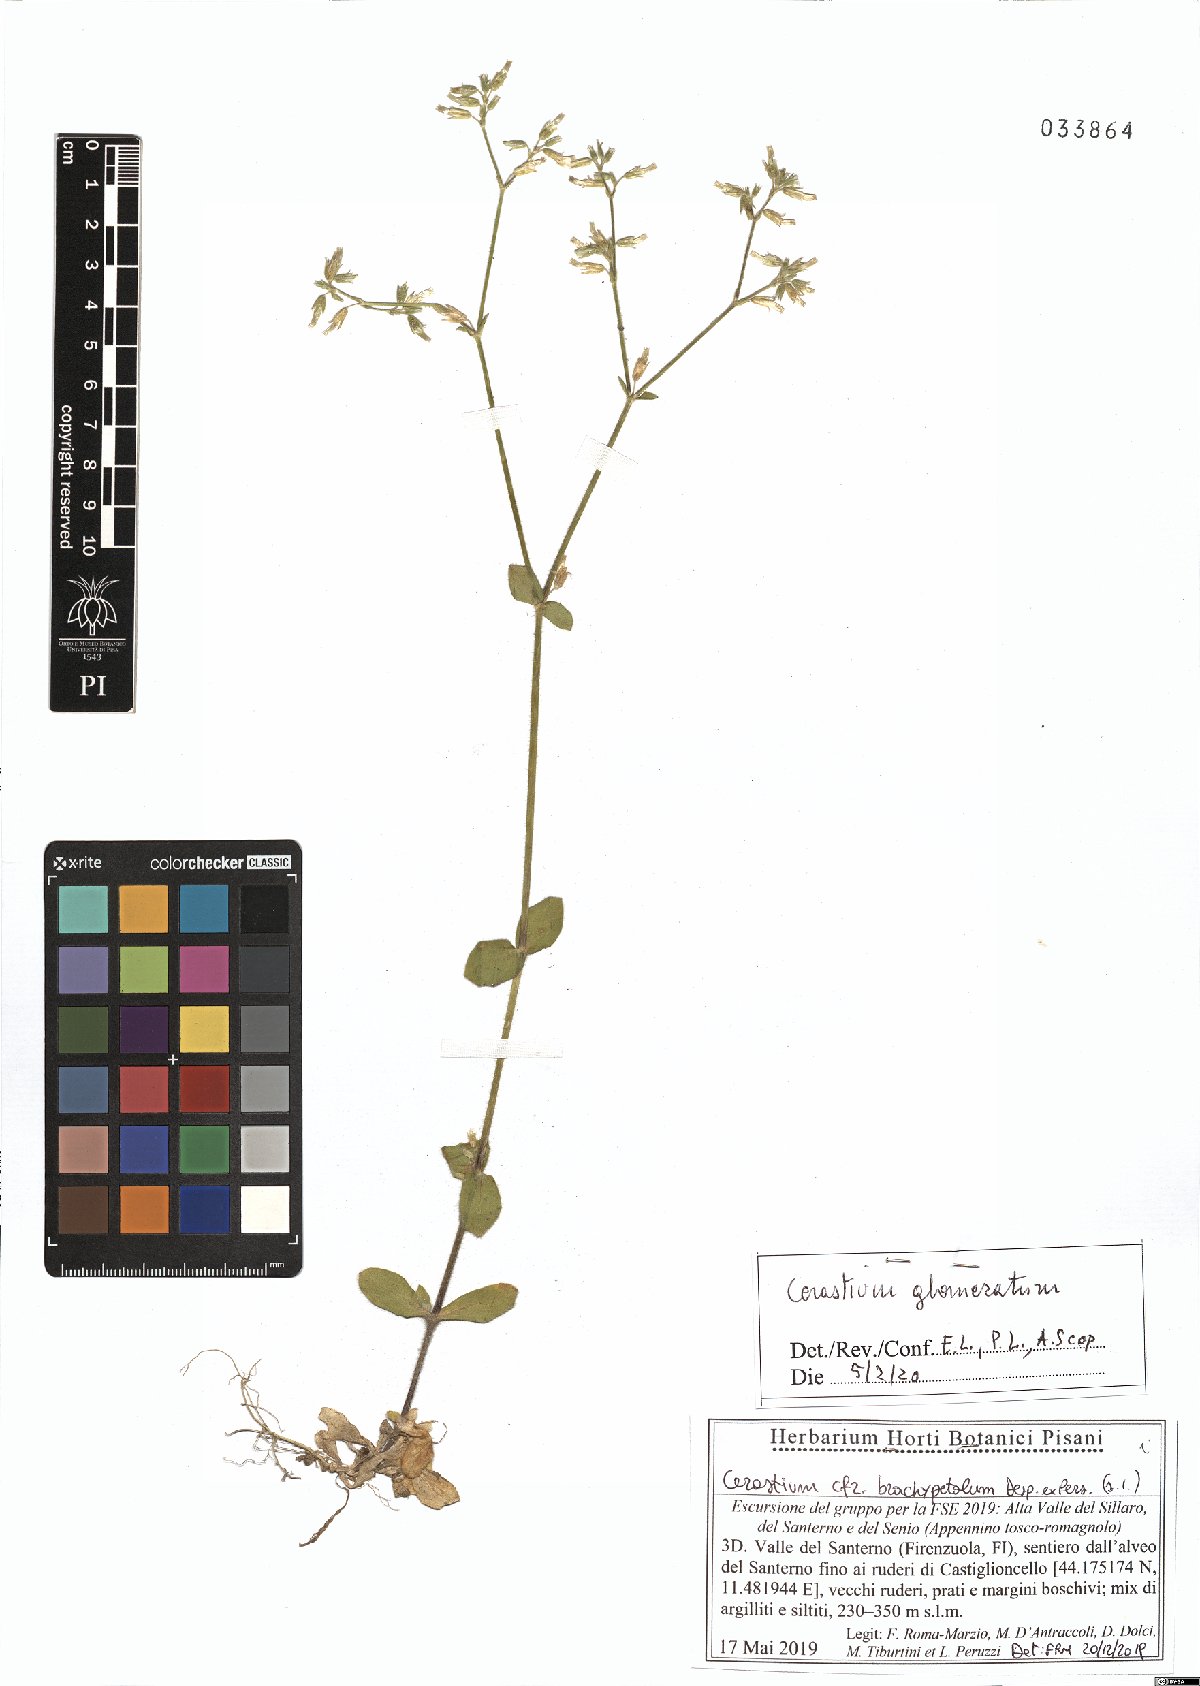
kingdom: Plantae
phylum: Tracheophyta
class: Magnoliopsida
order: Caryophyllales
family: Caryophyllaceae
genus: Cerastium
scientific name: Cerastium glomeratum
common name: Sticky chickweed
